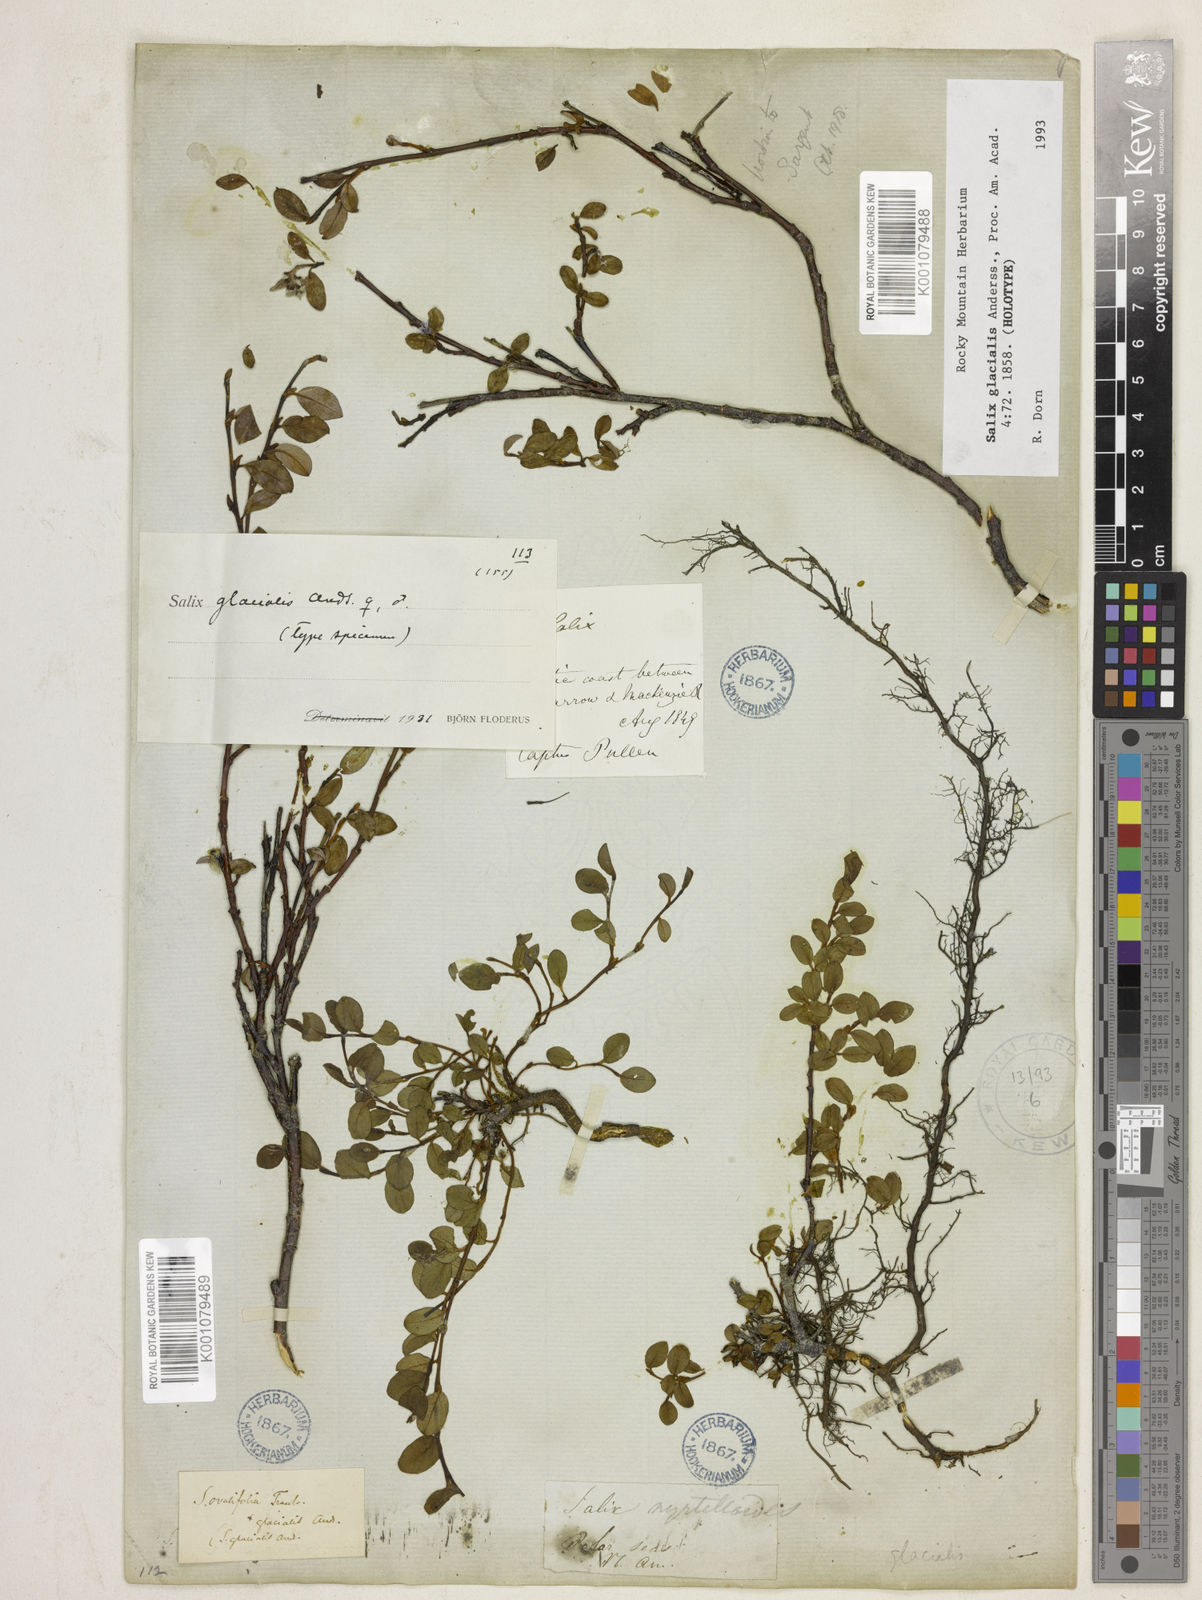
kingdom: Plantae
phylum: Tracheophyta
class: Magnoliopsida
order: Malpighiales
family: Salicaceae
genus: Salix
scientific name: Salix ovalifolia
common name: Arctic seashore willow
